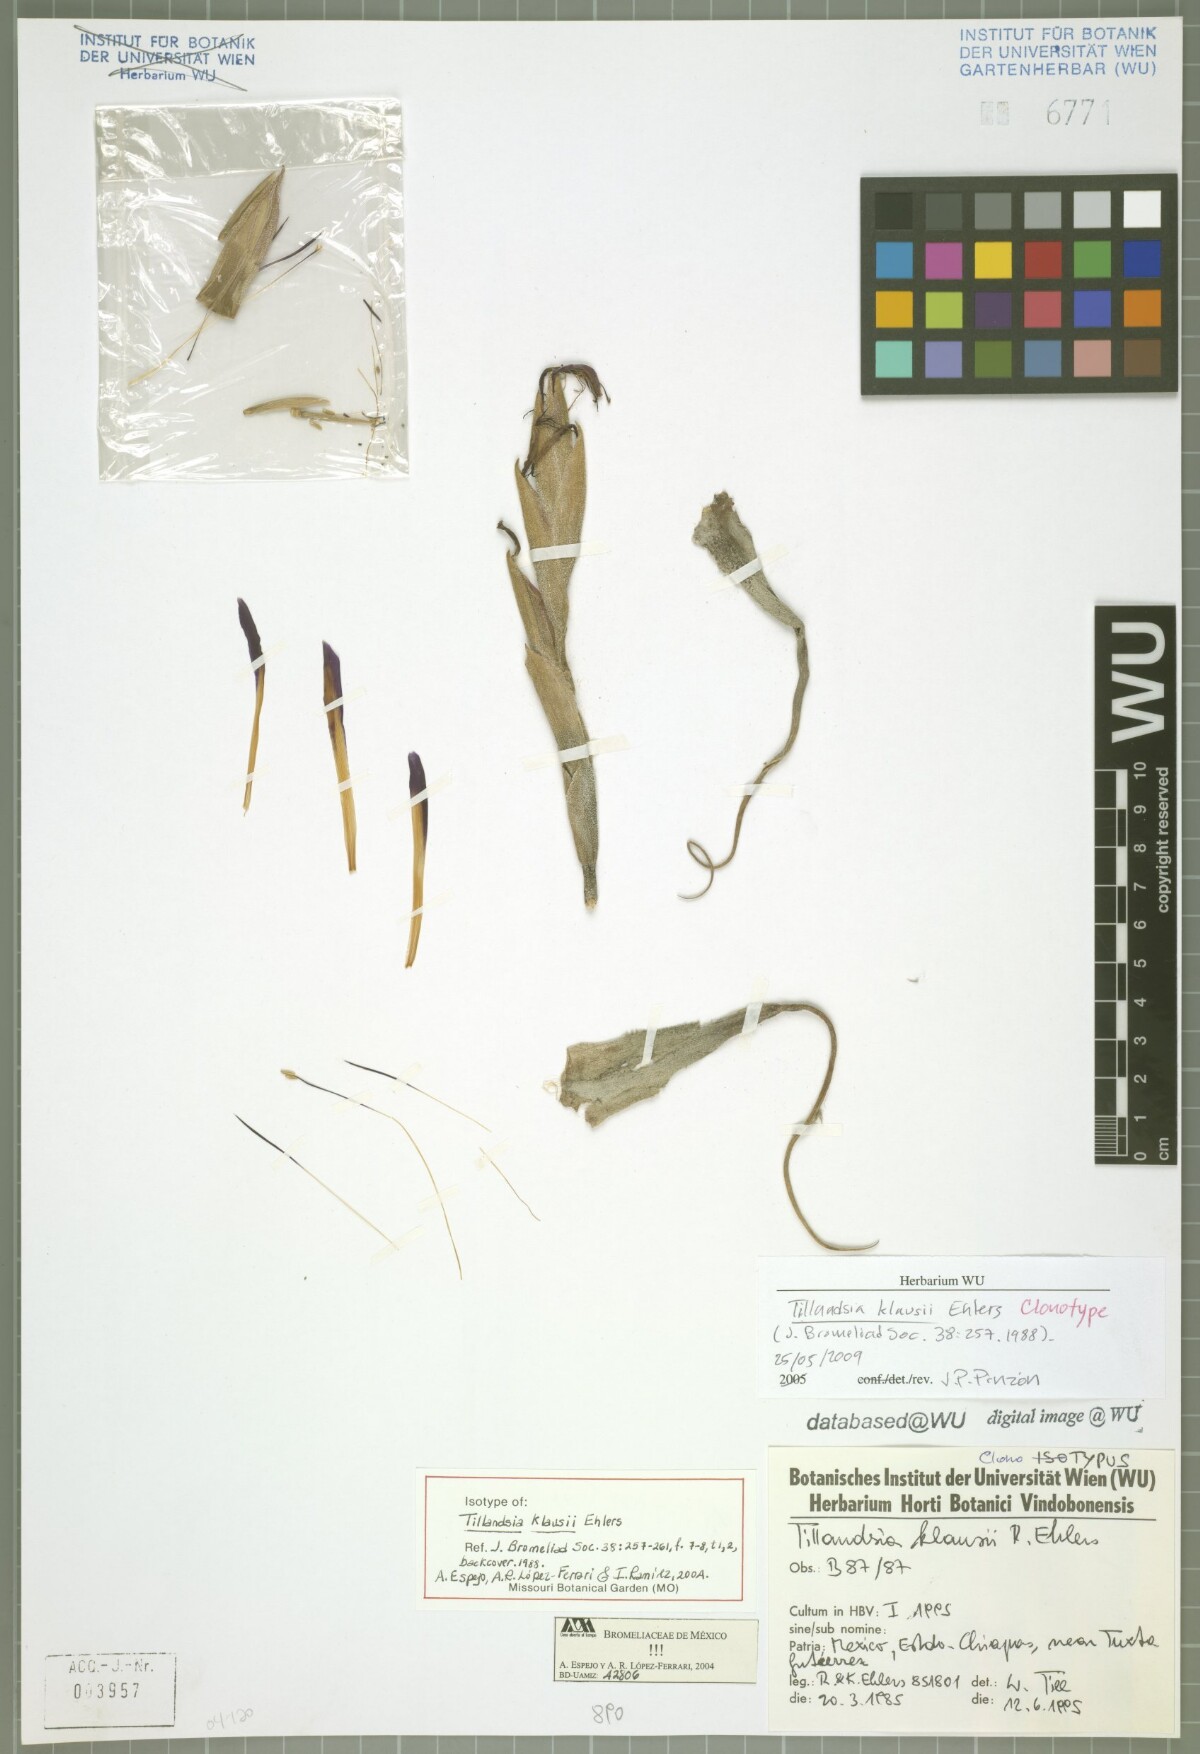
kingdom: Plantae
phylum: Tracheophyta
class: Liliopsida
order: Poales
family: Bromeliaceae
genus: Tillandsia
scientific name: Tillandsia klausii
